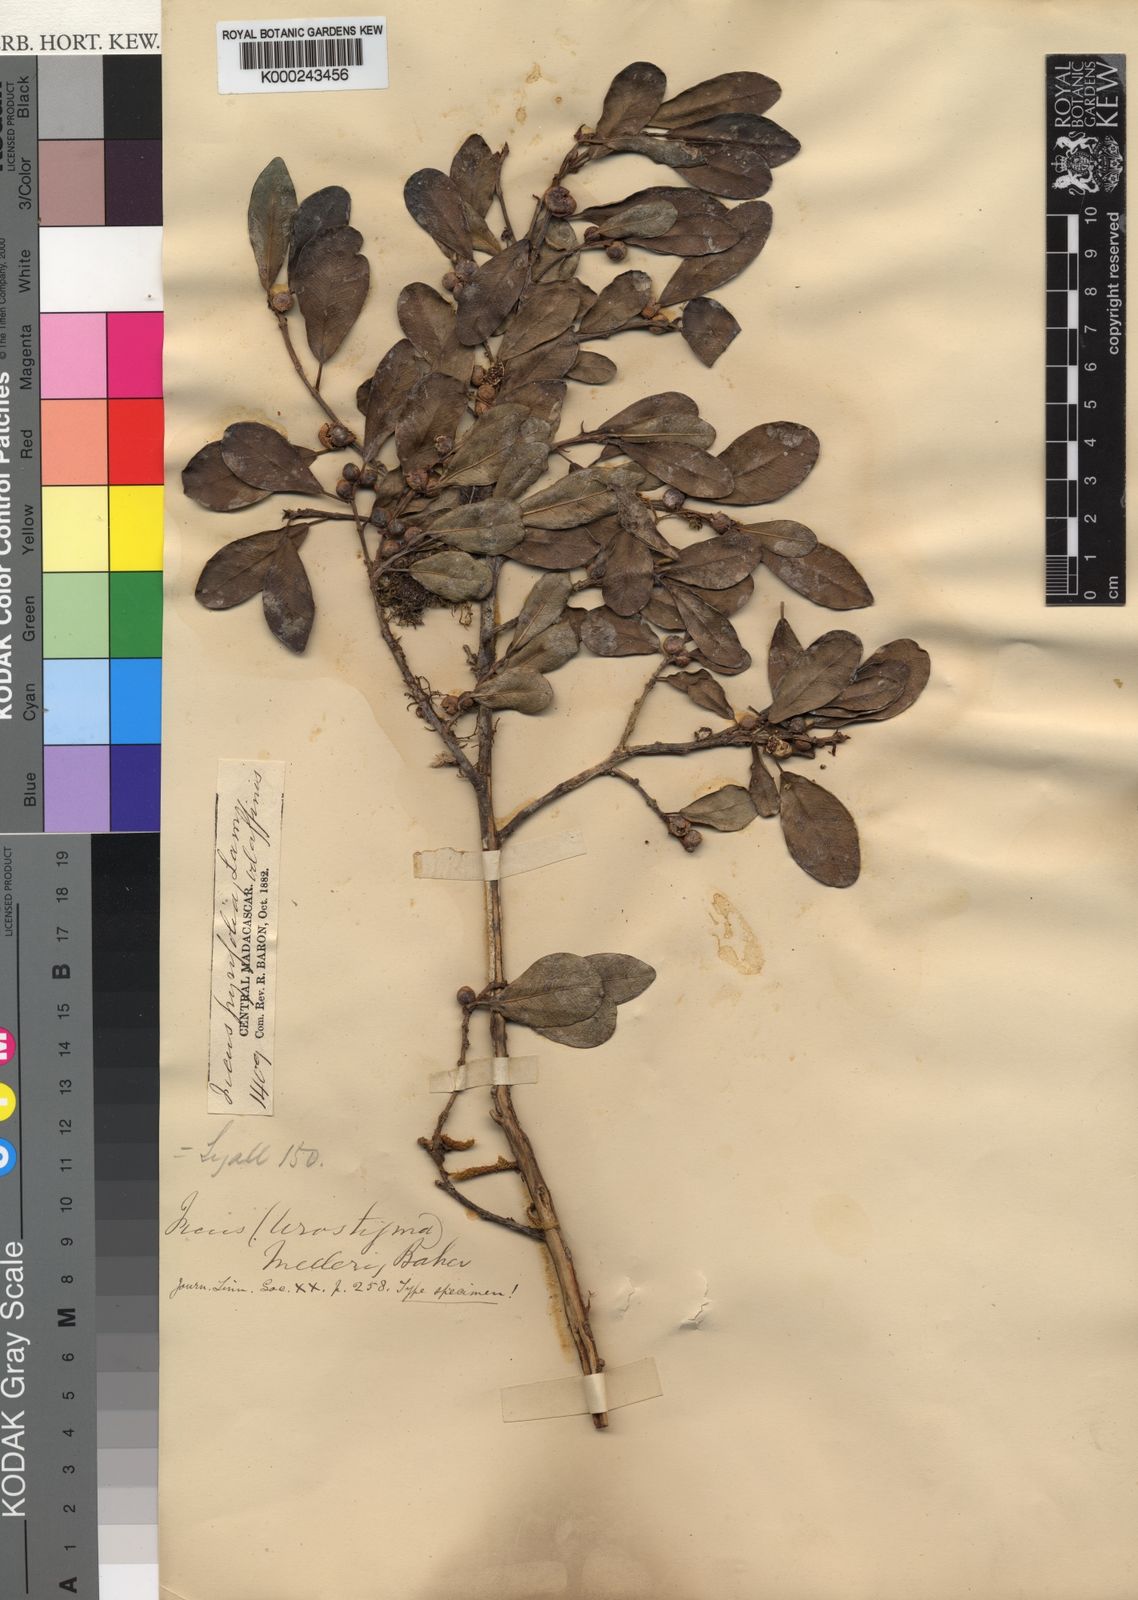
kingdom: Plantae
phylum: Tracheophyta
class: Magnoliopsida
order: Rosales
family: Moraceae
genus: Ficus
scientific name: Ficus reflexa
